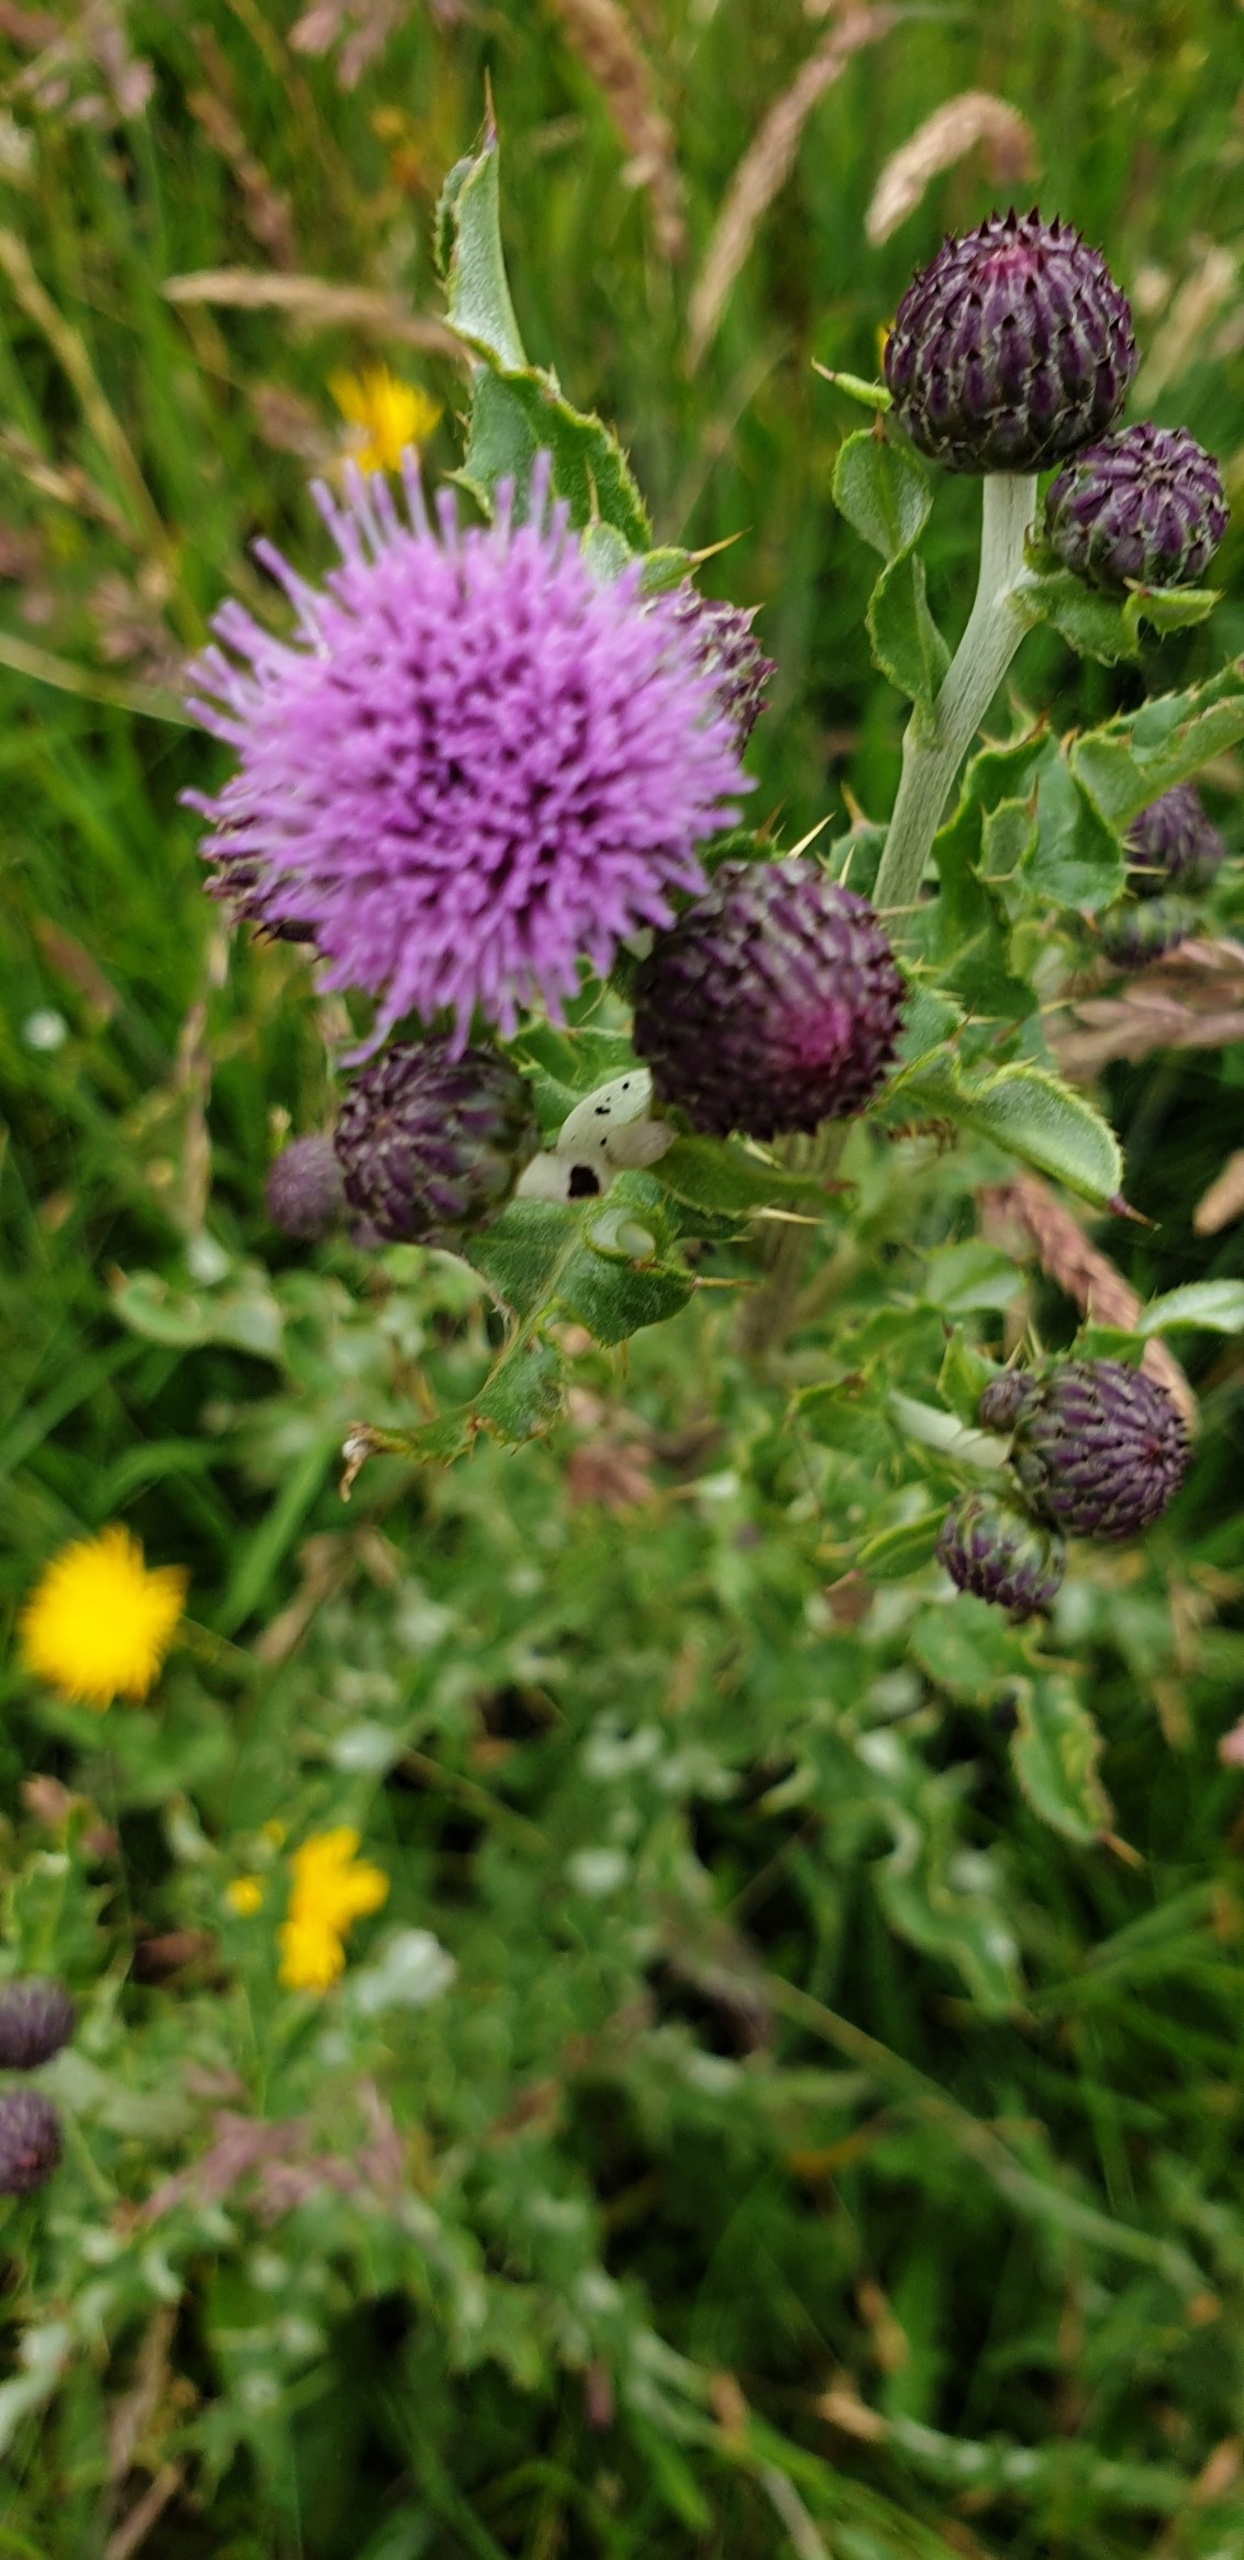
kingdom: Plantae
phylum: Tracheophyta
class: Magnoliopsida
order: Asterales
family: Asteraceae
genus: Cirsium
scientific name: Cirsium arvense
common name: Ager-tidsel
